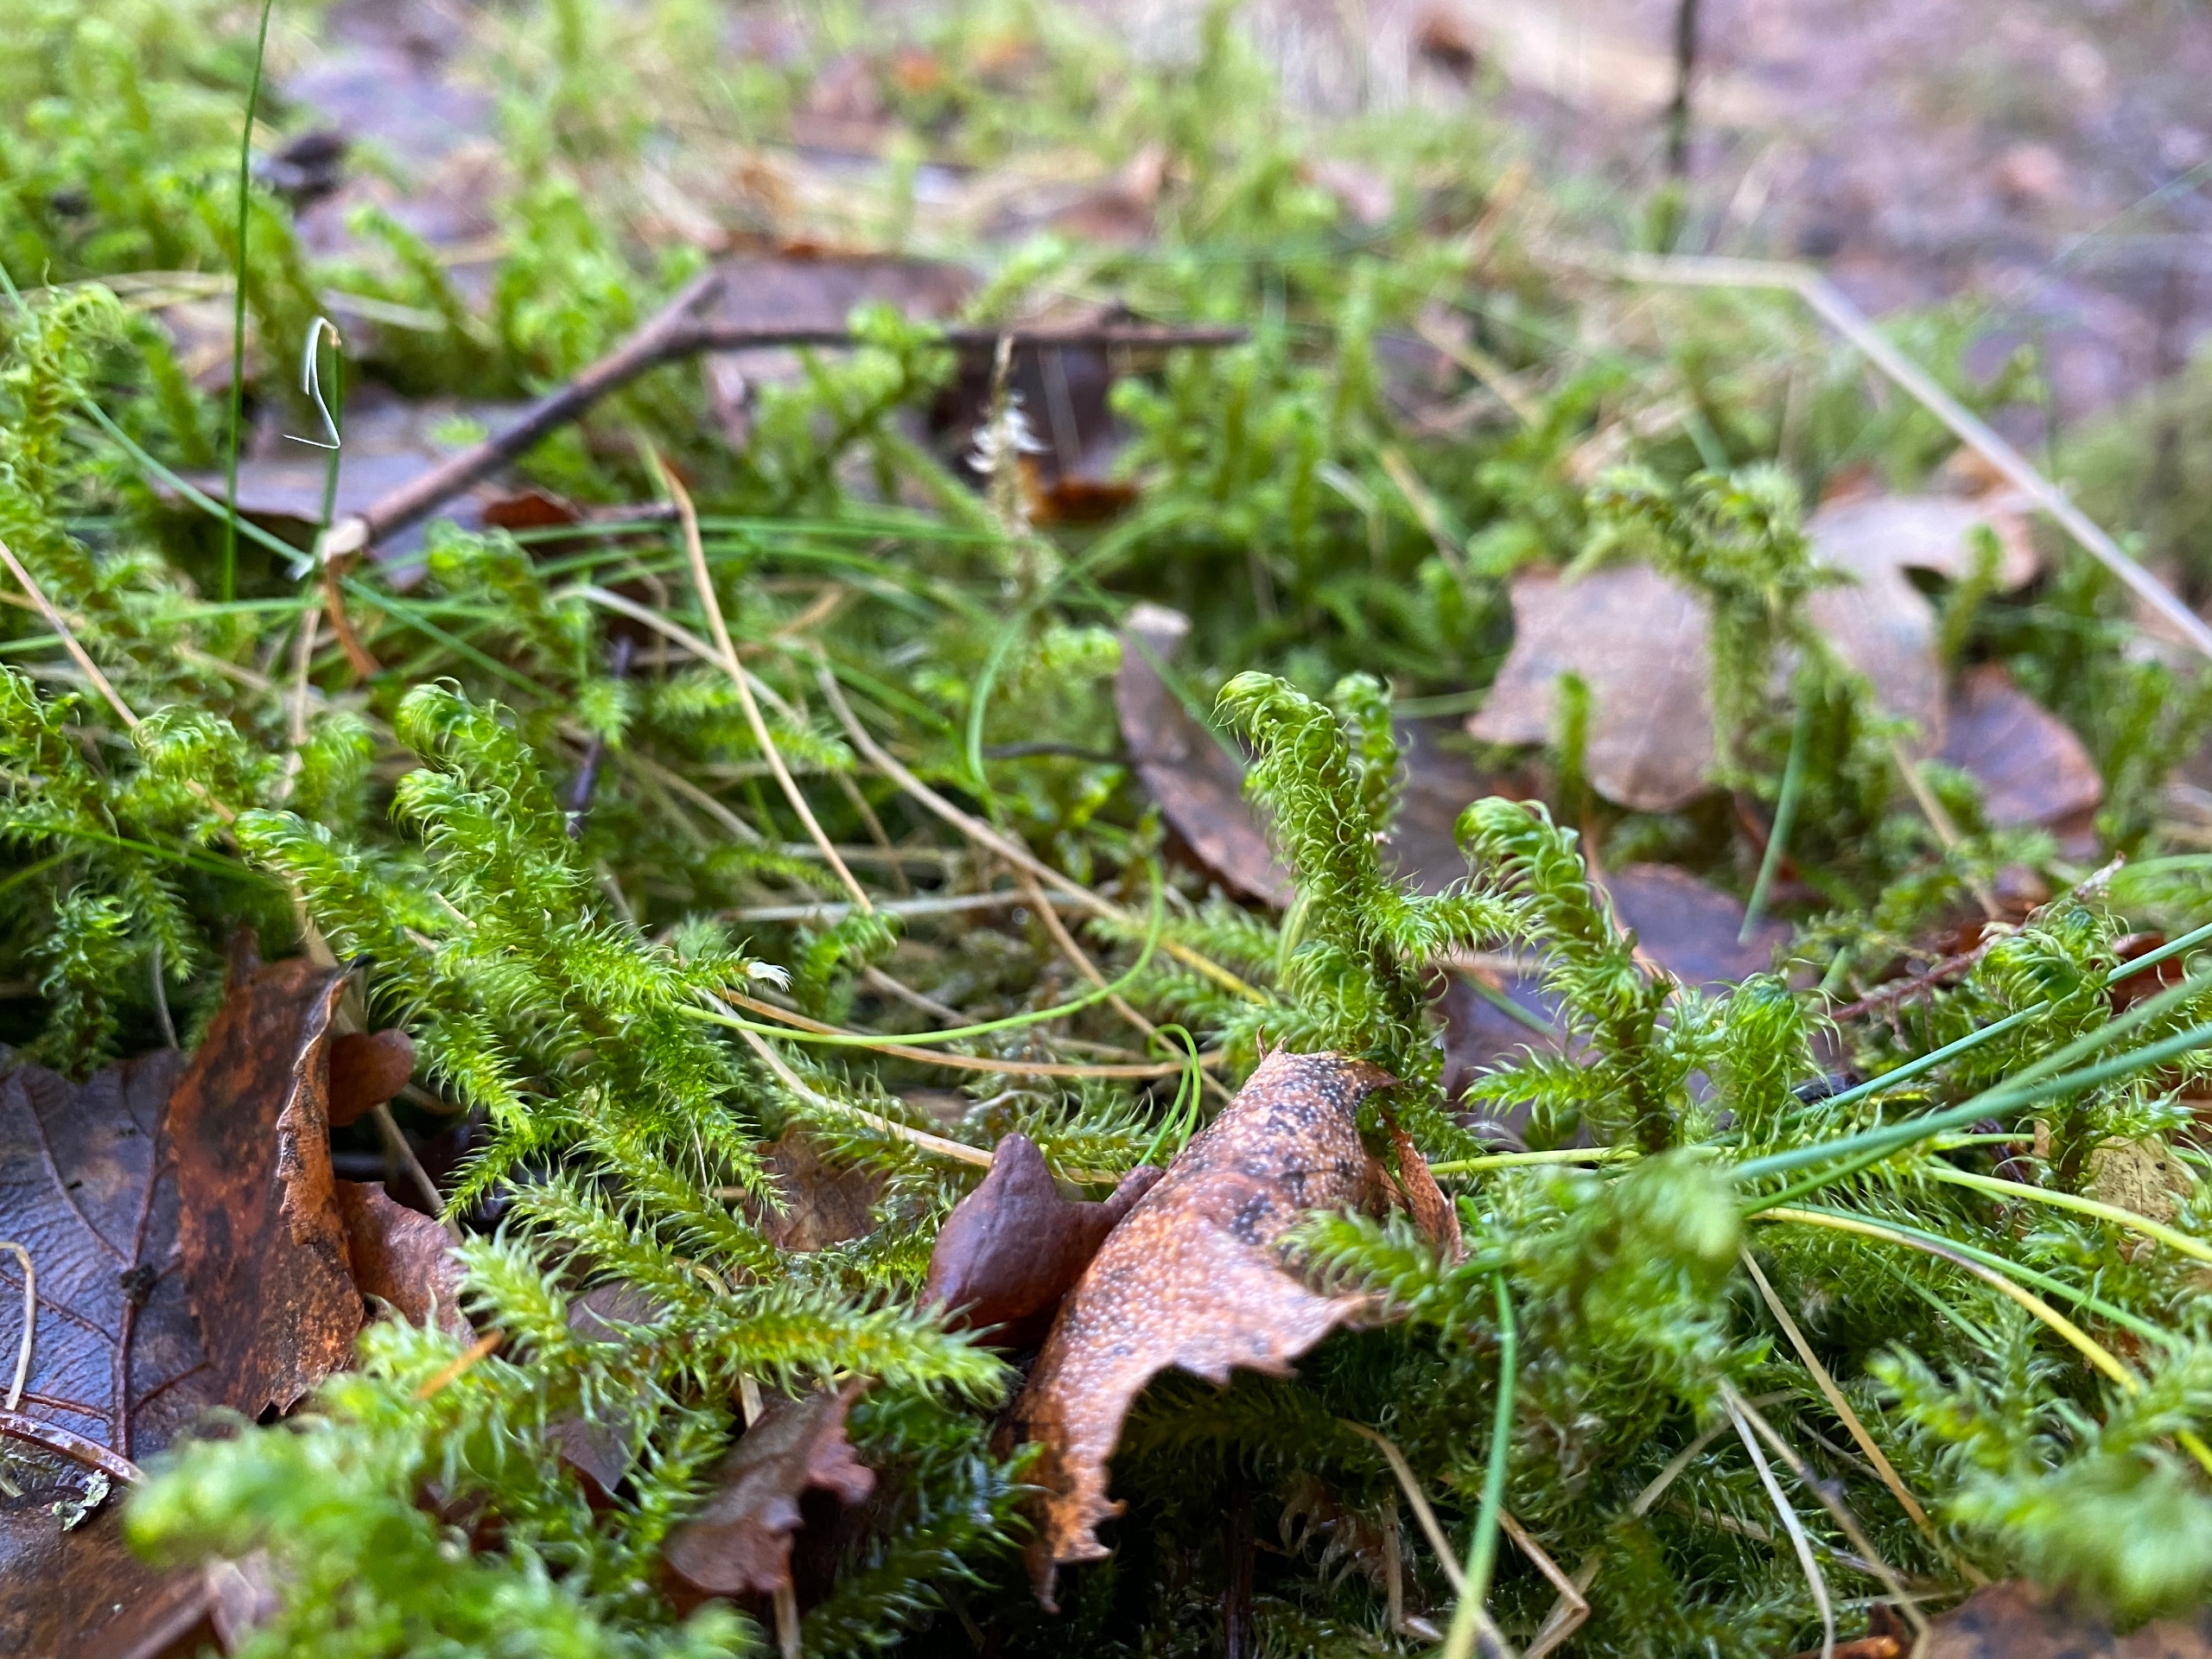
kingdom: Plantae
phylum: Bryophyta
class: Bryopsida
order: Hypnales
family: Hylocomiaceae
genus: Rhytidiadelphus
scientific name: Rhytidiadelphus loreus
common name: Ulvefod-kransemos
